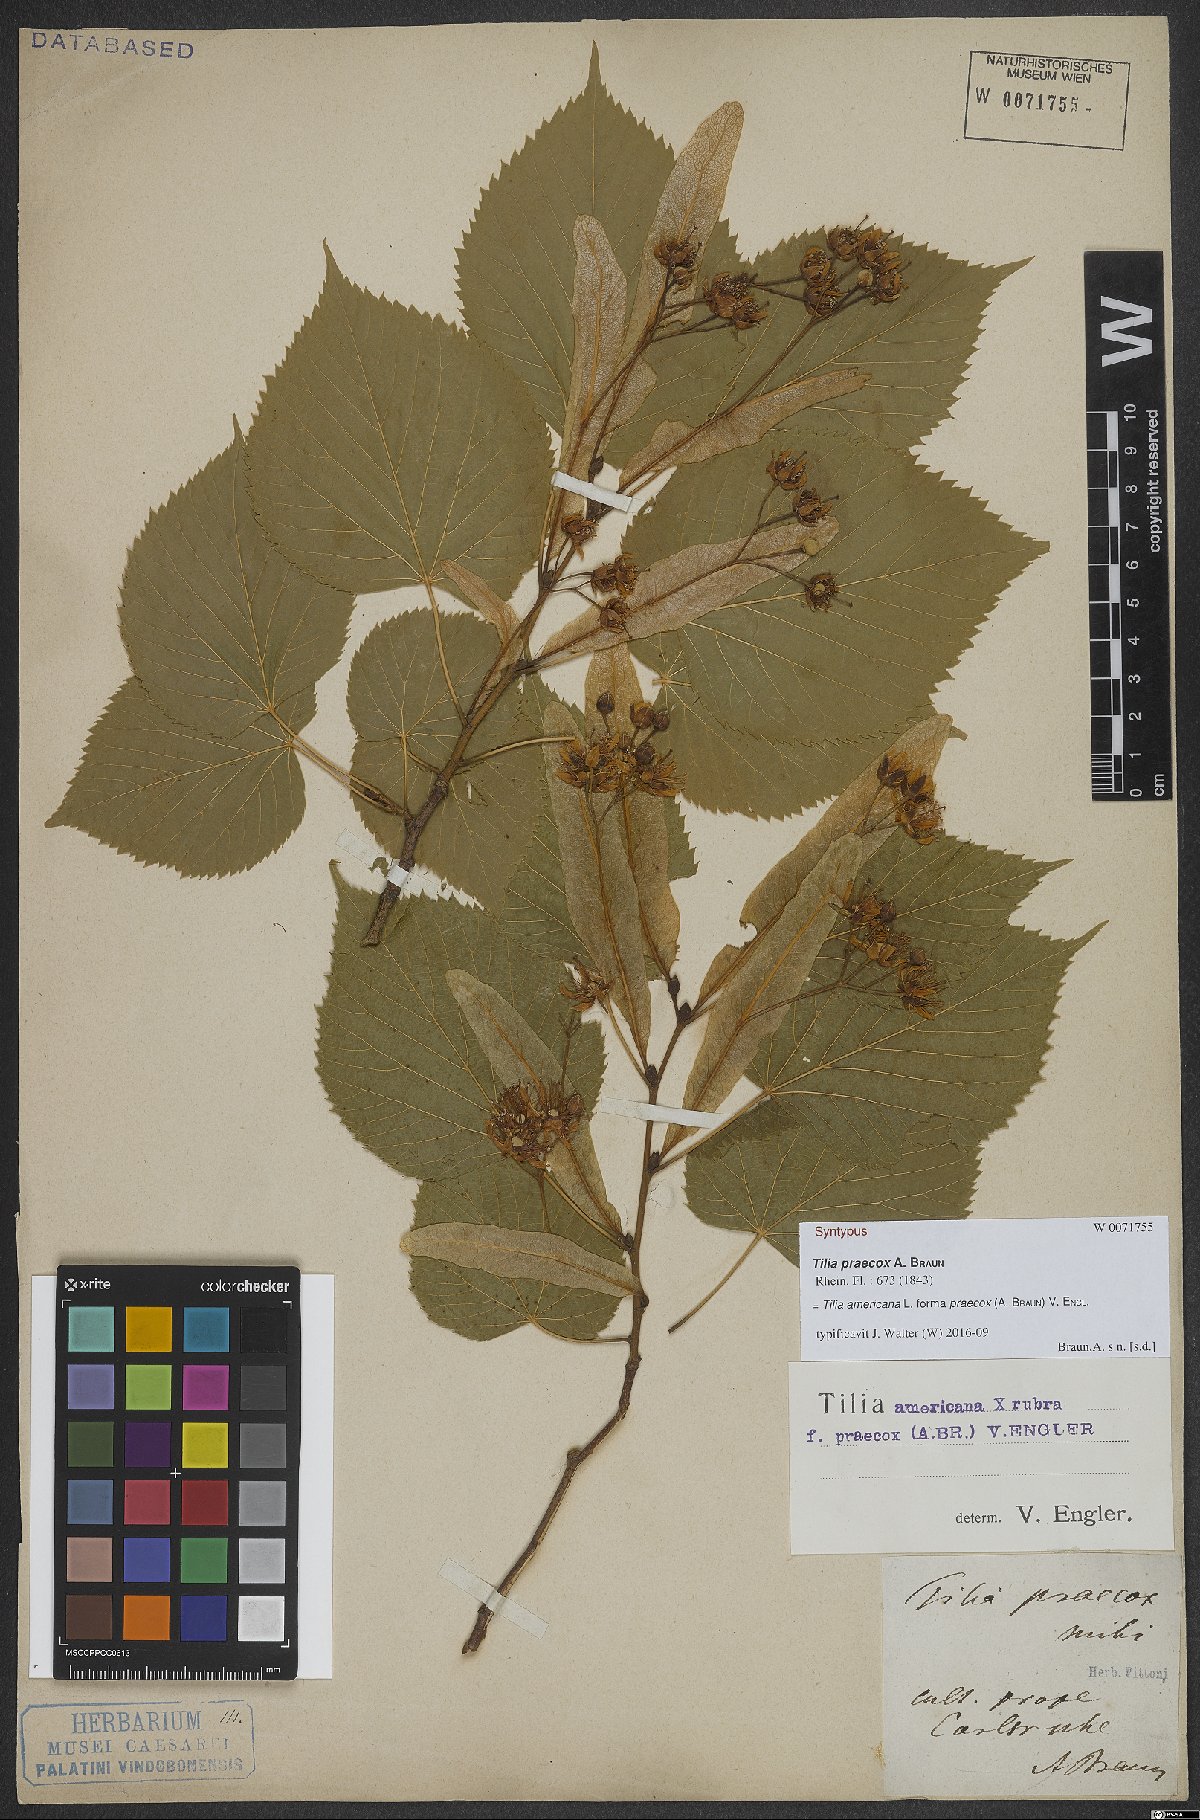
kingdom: Plantae
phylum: Tracheophyta
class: Magnoliopsida
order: Malvales
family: Malvaceae
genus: Tilia
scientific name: Tilia flaccida
